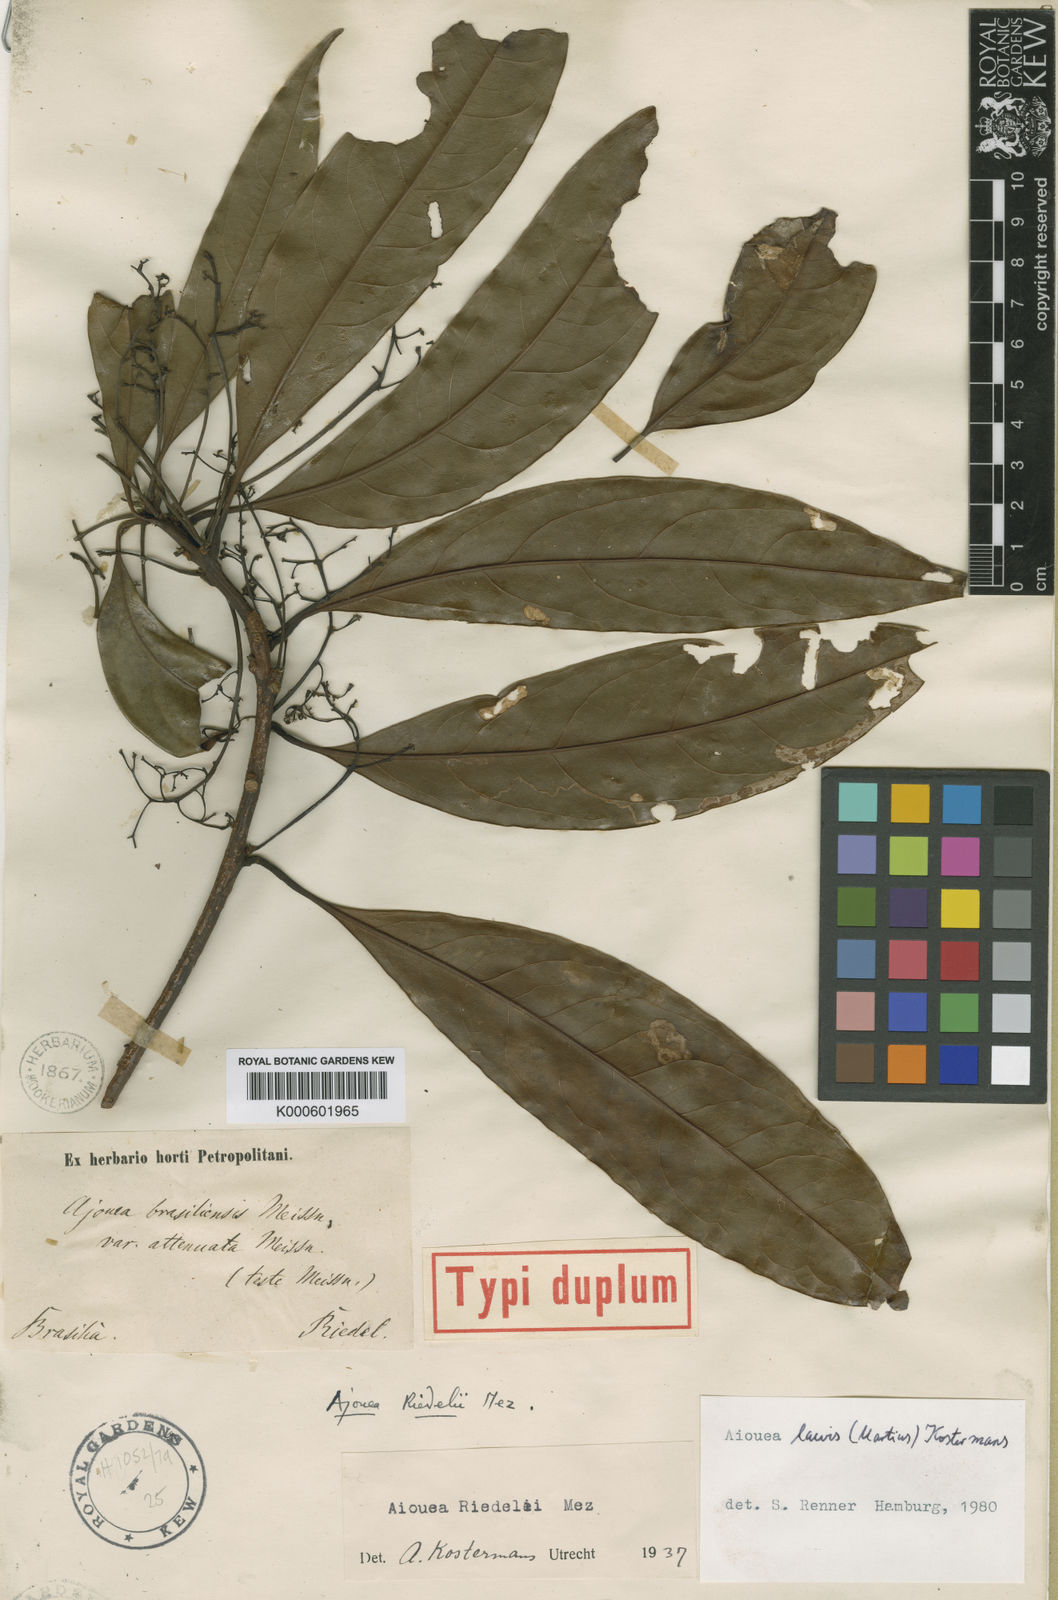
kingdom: Plantae
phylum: Tracheophyta
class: Magnoliopsida
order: Laurales
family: Lauraceae
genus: Aiouea
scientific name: Aiouea piauhyensis
